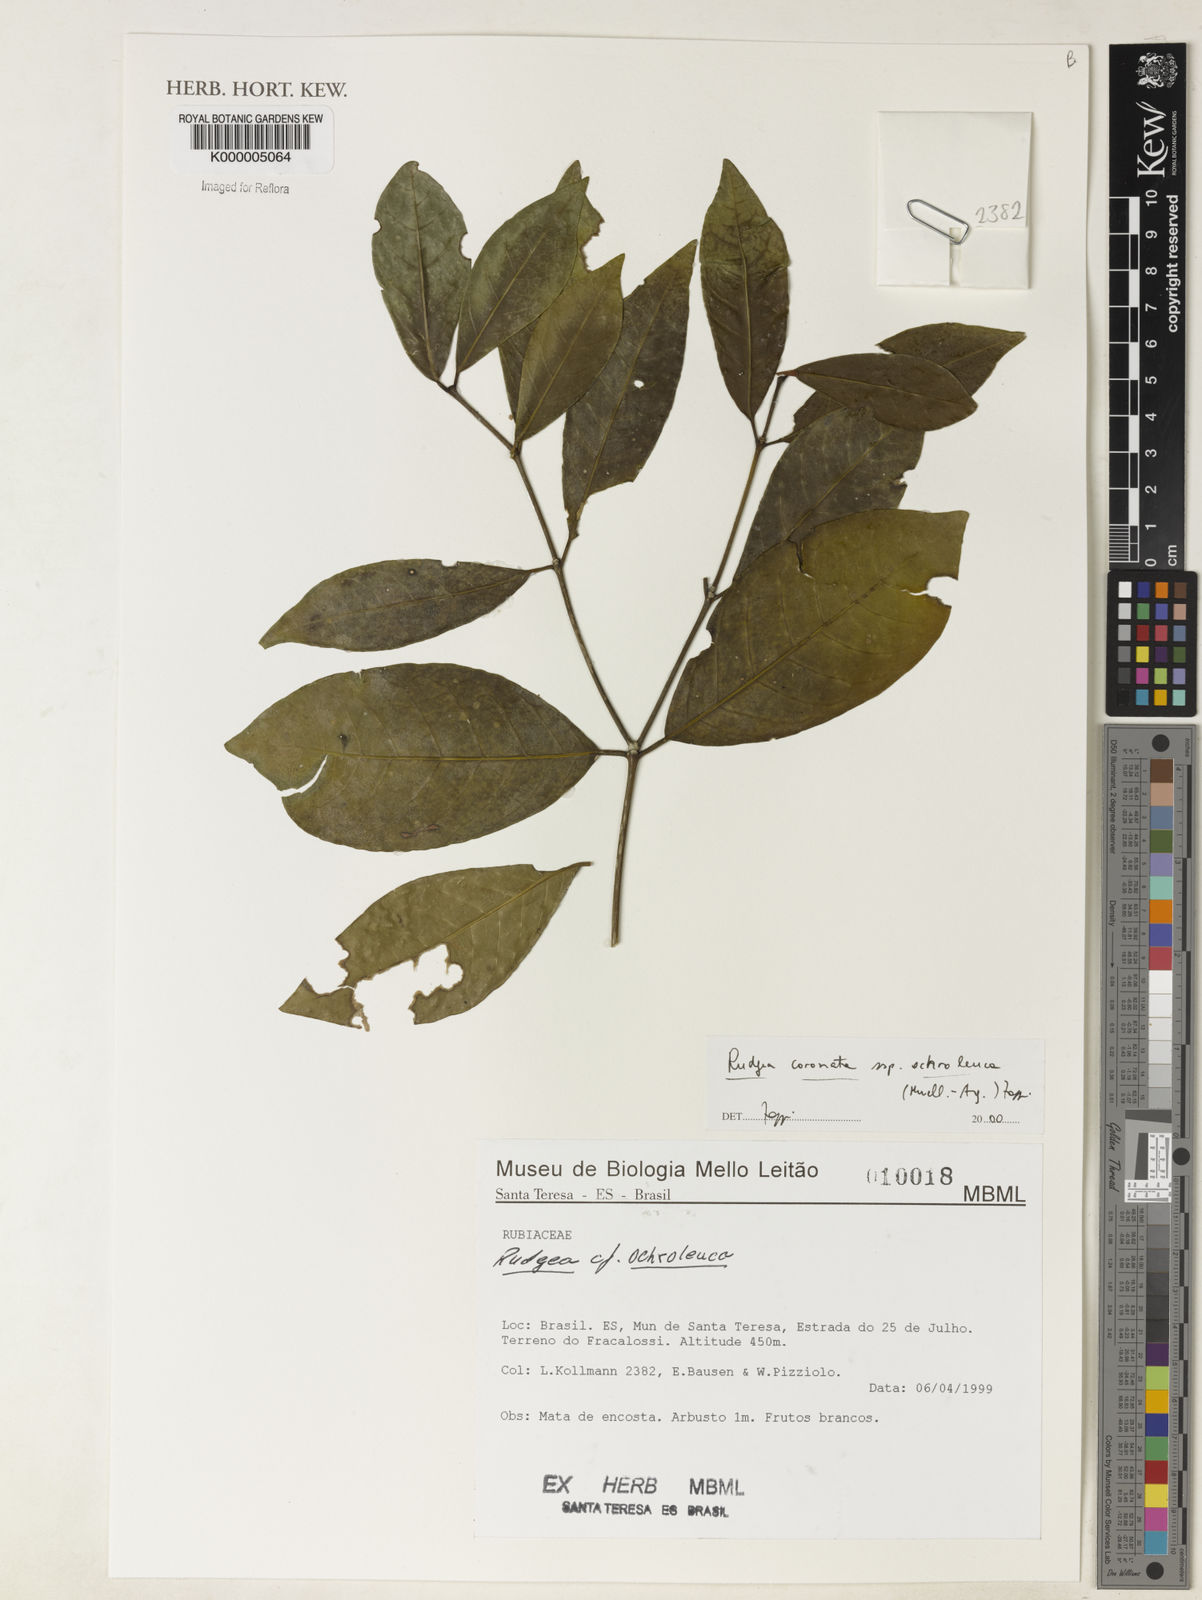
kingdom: Plantae
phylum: Tracheophyta
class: Magnoliopsida
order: Gentianales
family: Rubiaceae
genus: Rudgea
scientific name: Rudgea coronata
